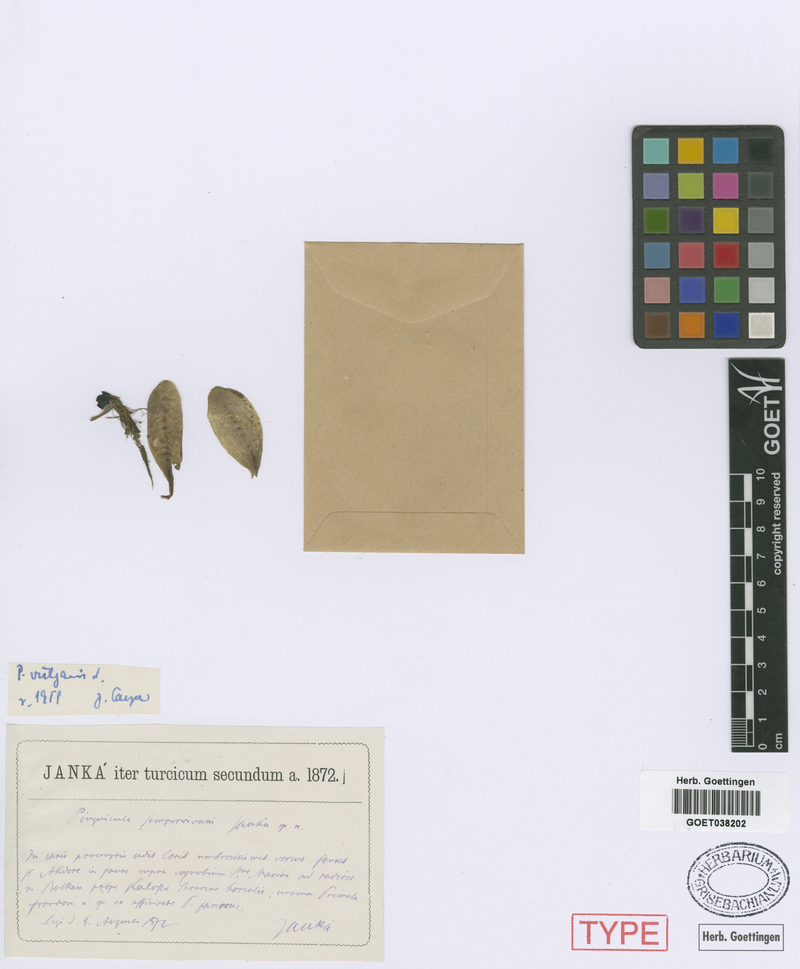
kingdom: Plantae
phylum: Tracheophyta
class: Magnoliopsida
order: Lamiales
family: Lentibulariaceae
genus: Pinguicula
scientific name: Pinguicula vulgaris
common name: Common butterwort
